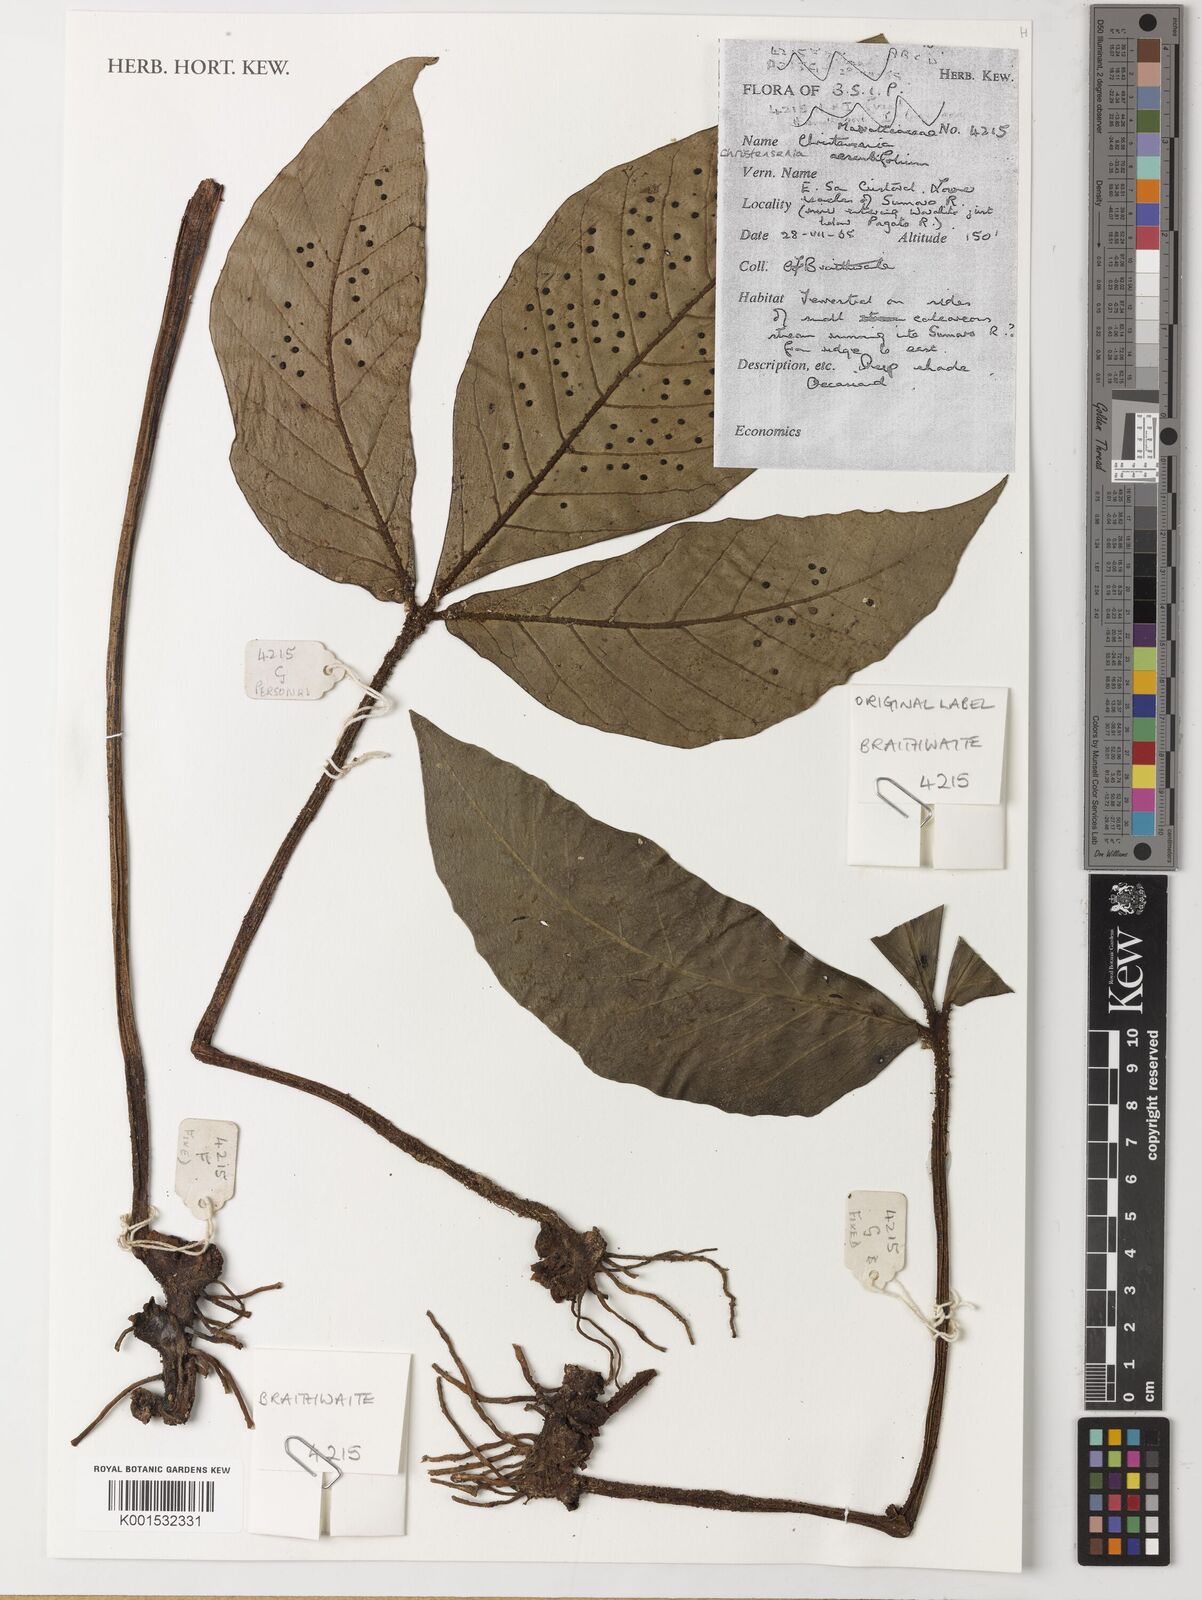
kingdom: Plantae
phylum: Tracheophyta
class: Polypodiopsida
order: Marattiales
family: Marattiaceae
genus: Christensenia
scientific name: Christensenia aesculifolia
